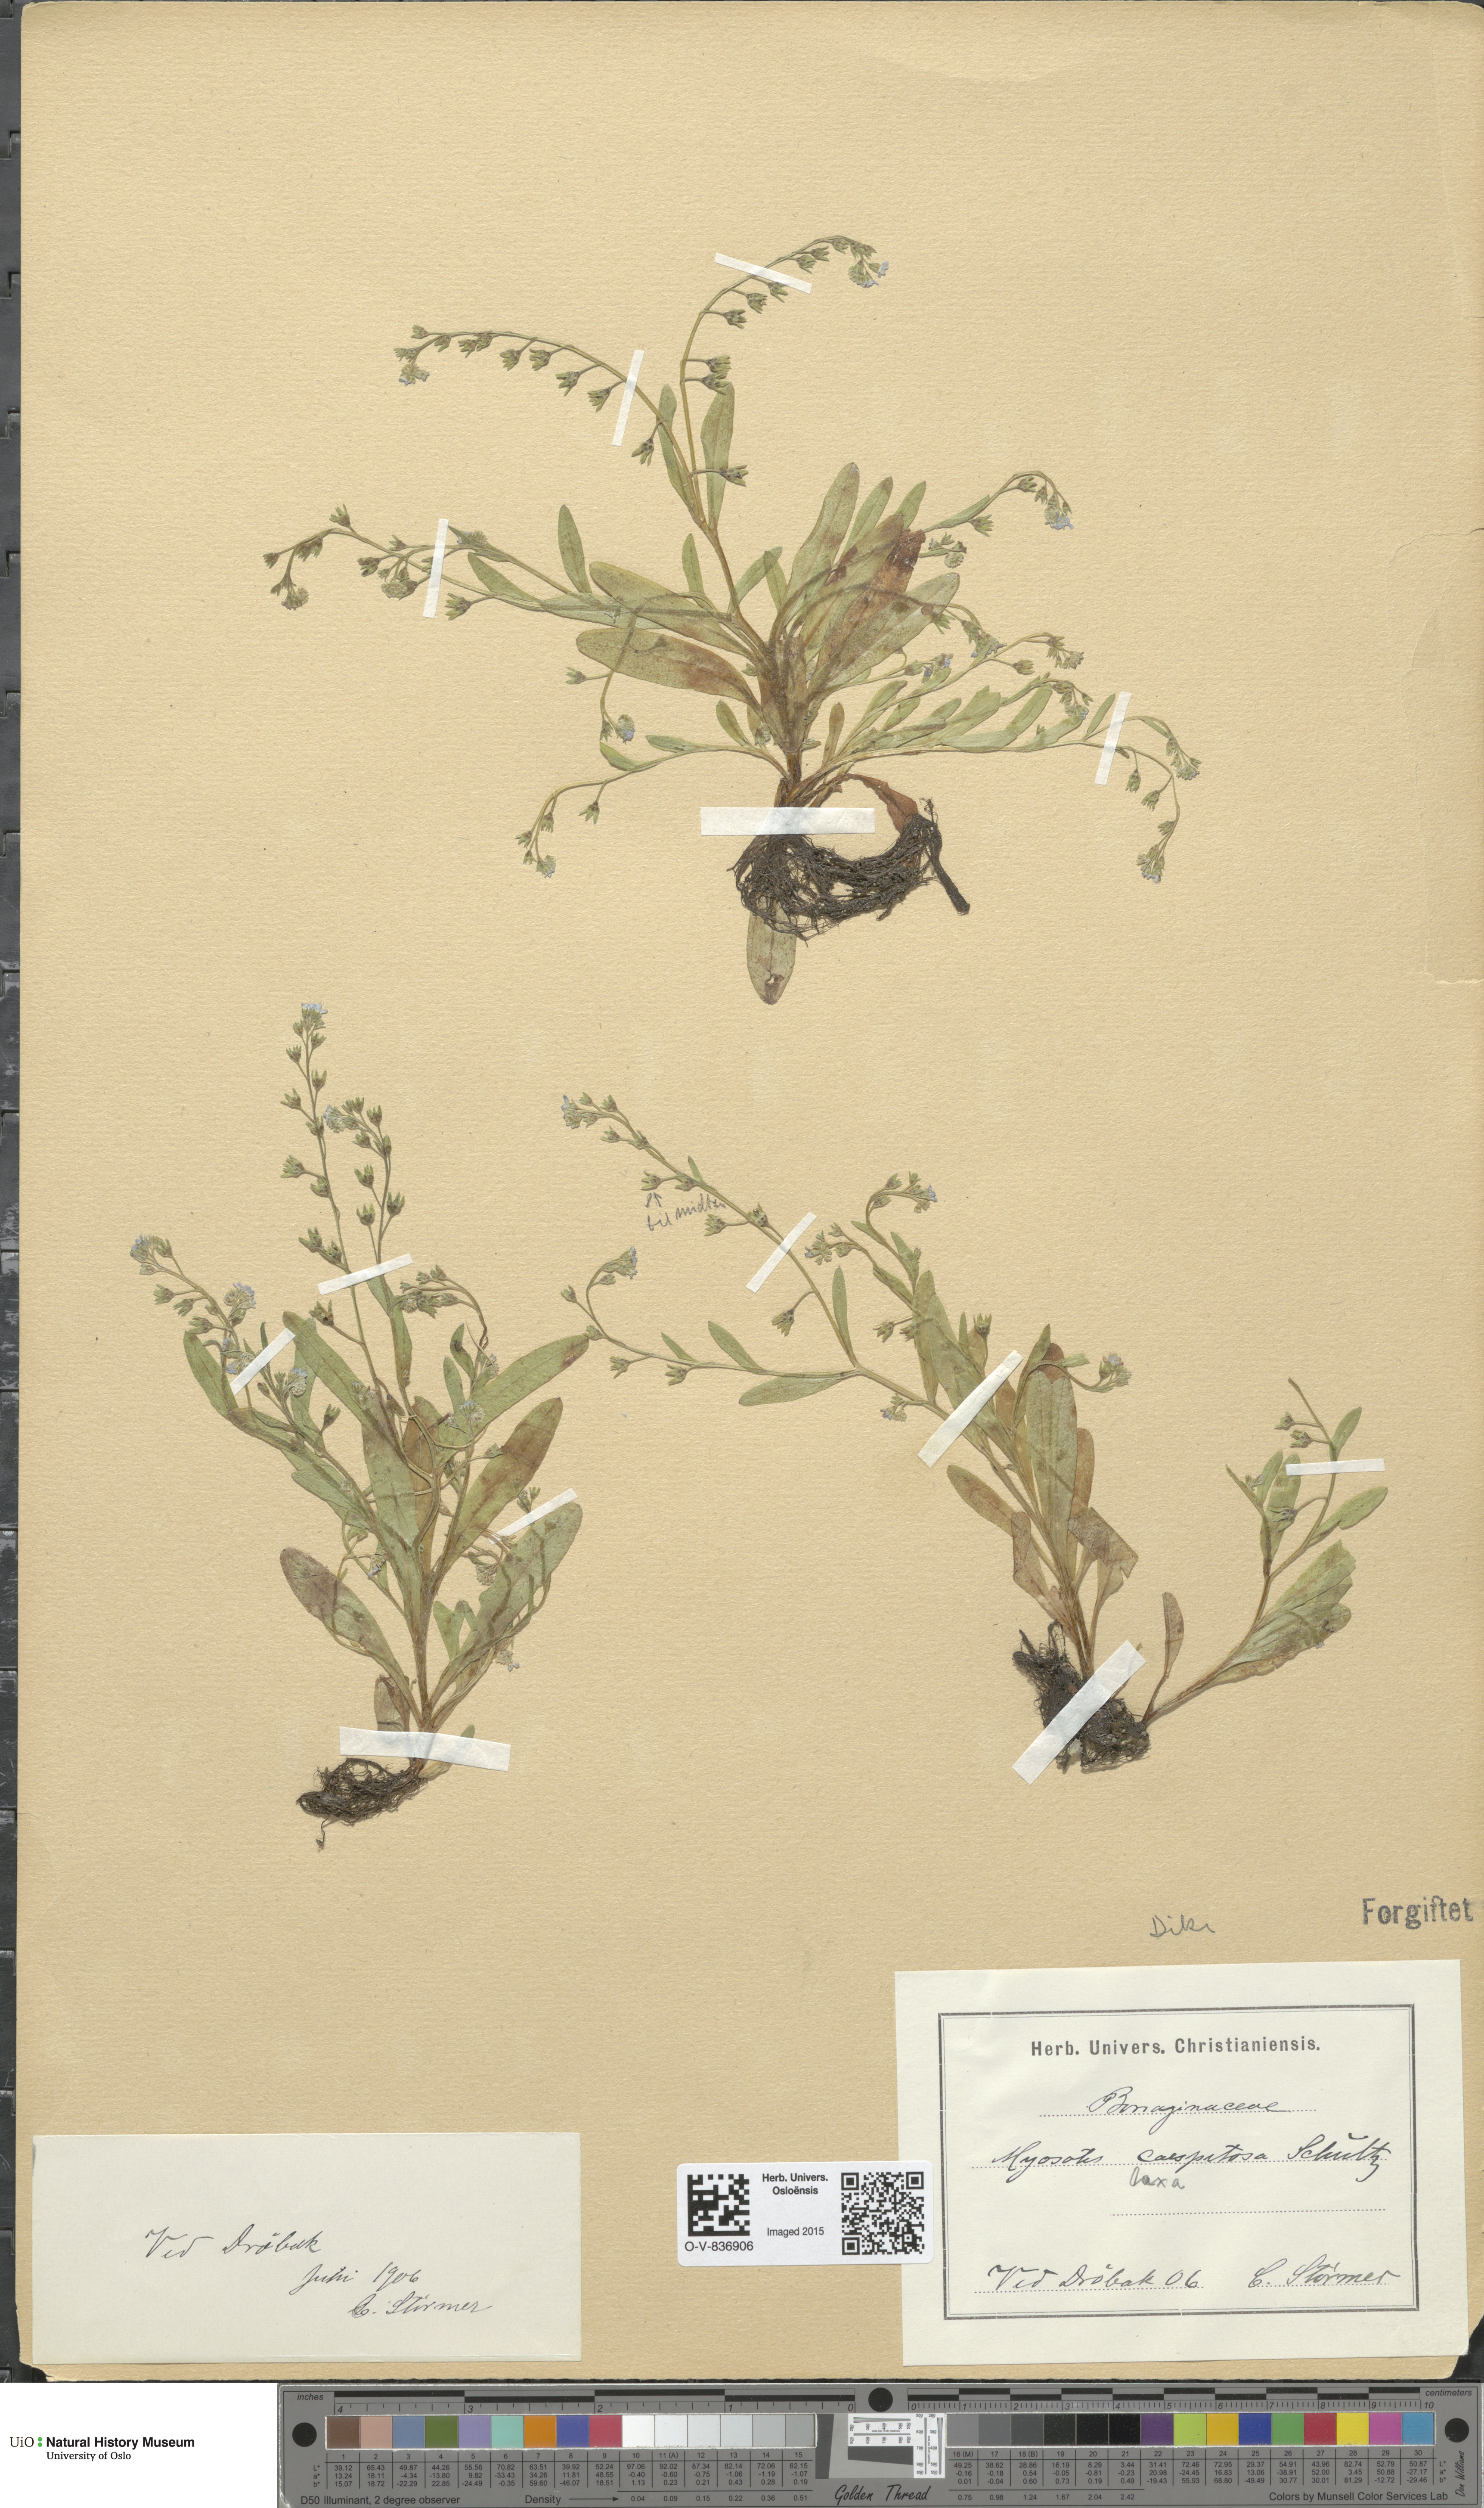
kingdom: Plantae
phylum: Tracheophyta
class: Magnoliopsida
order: Boraginales
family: Boraginaceae
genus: Myosotis
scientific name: Myosotis laxa
